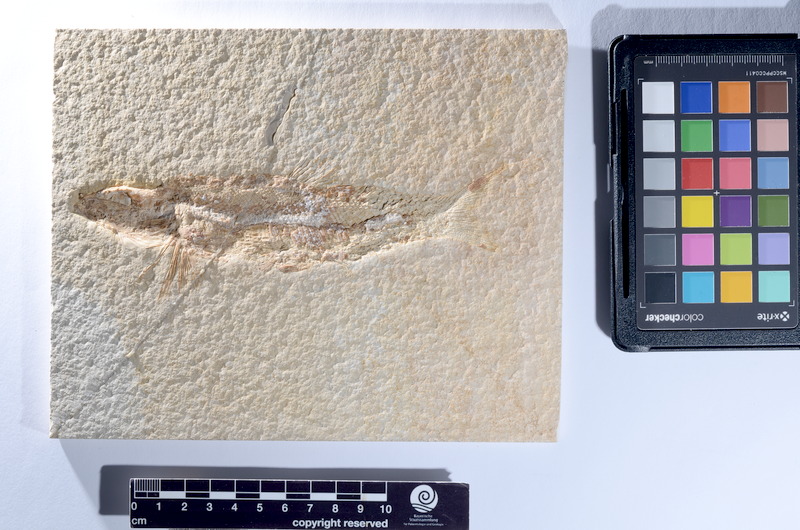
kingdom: Animalia
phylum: Chordata
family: Ophiopsiellidae
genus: Furo
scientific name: Furo longiserratus
